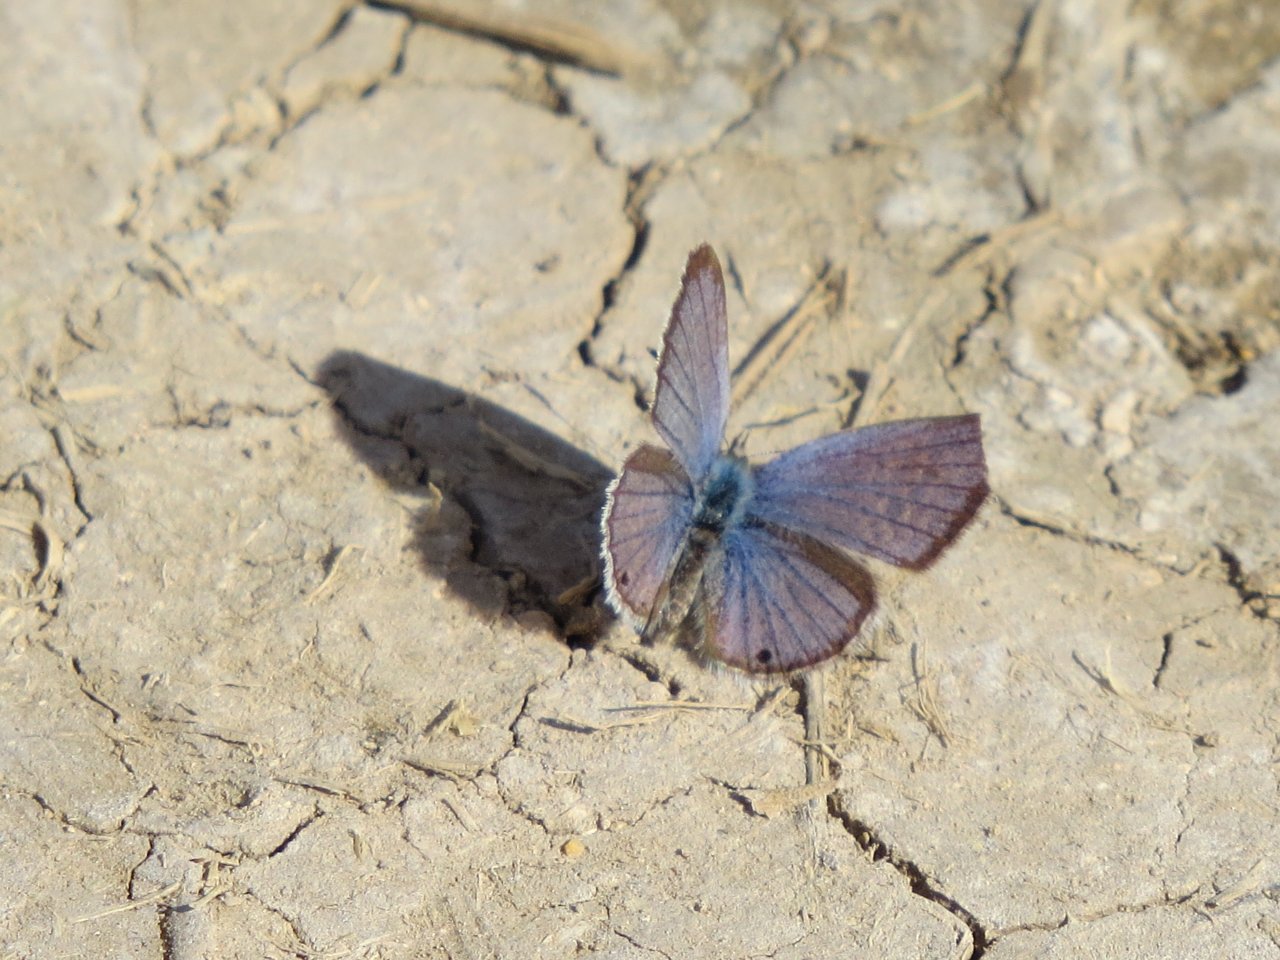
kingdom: Animalia
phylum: Arthropoda
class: Insecta
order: Lepidoptera
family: Lycaenidae
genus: Hemiargus
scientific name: Hemiargus ceraunus
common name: Ceraunus Blue
